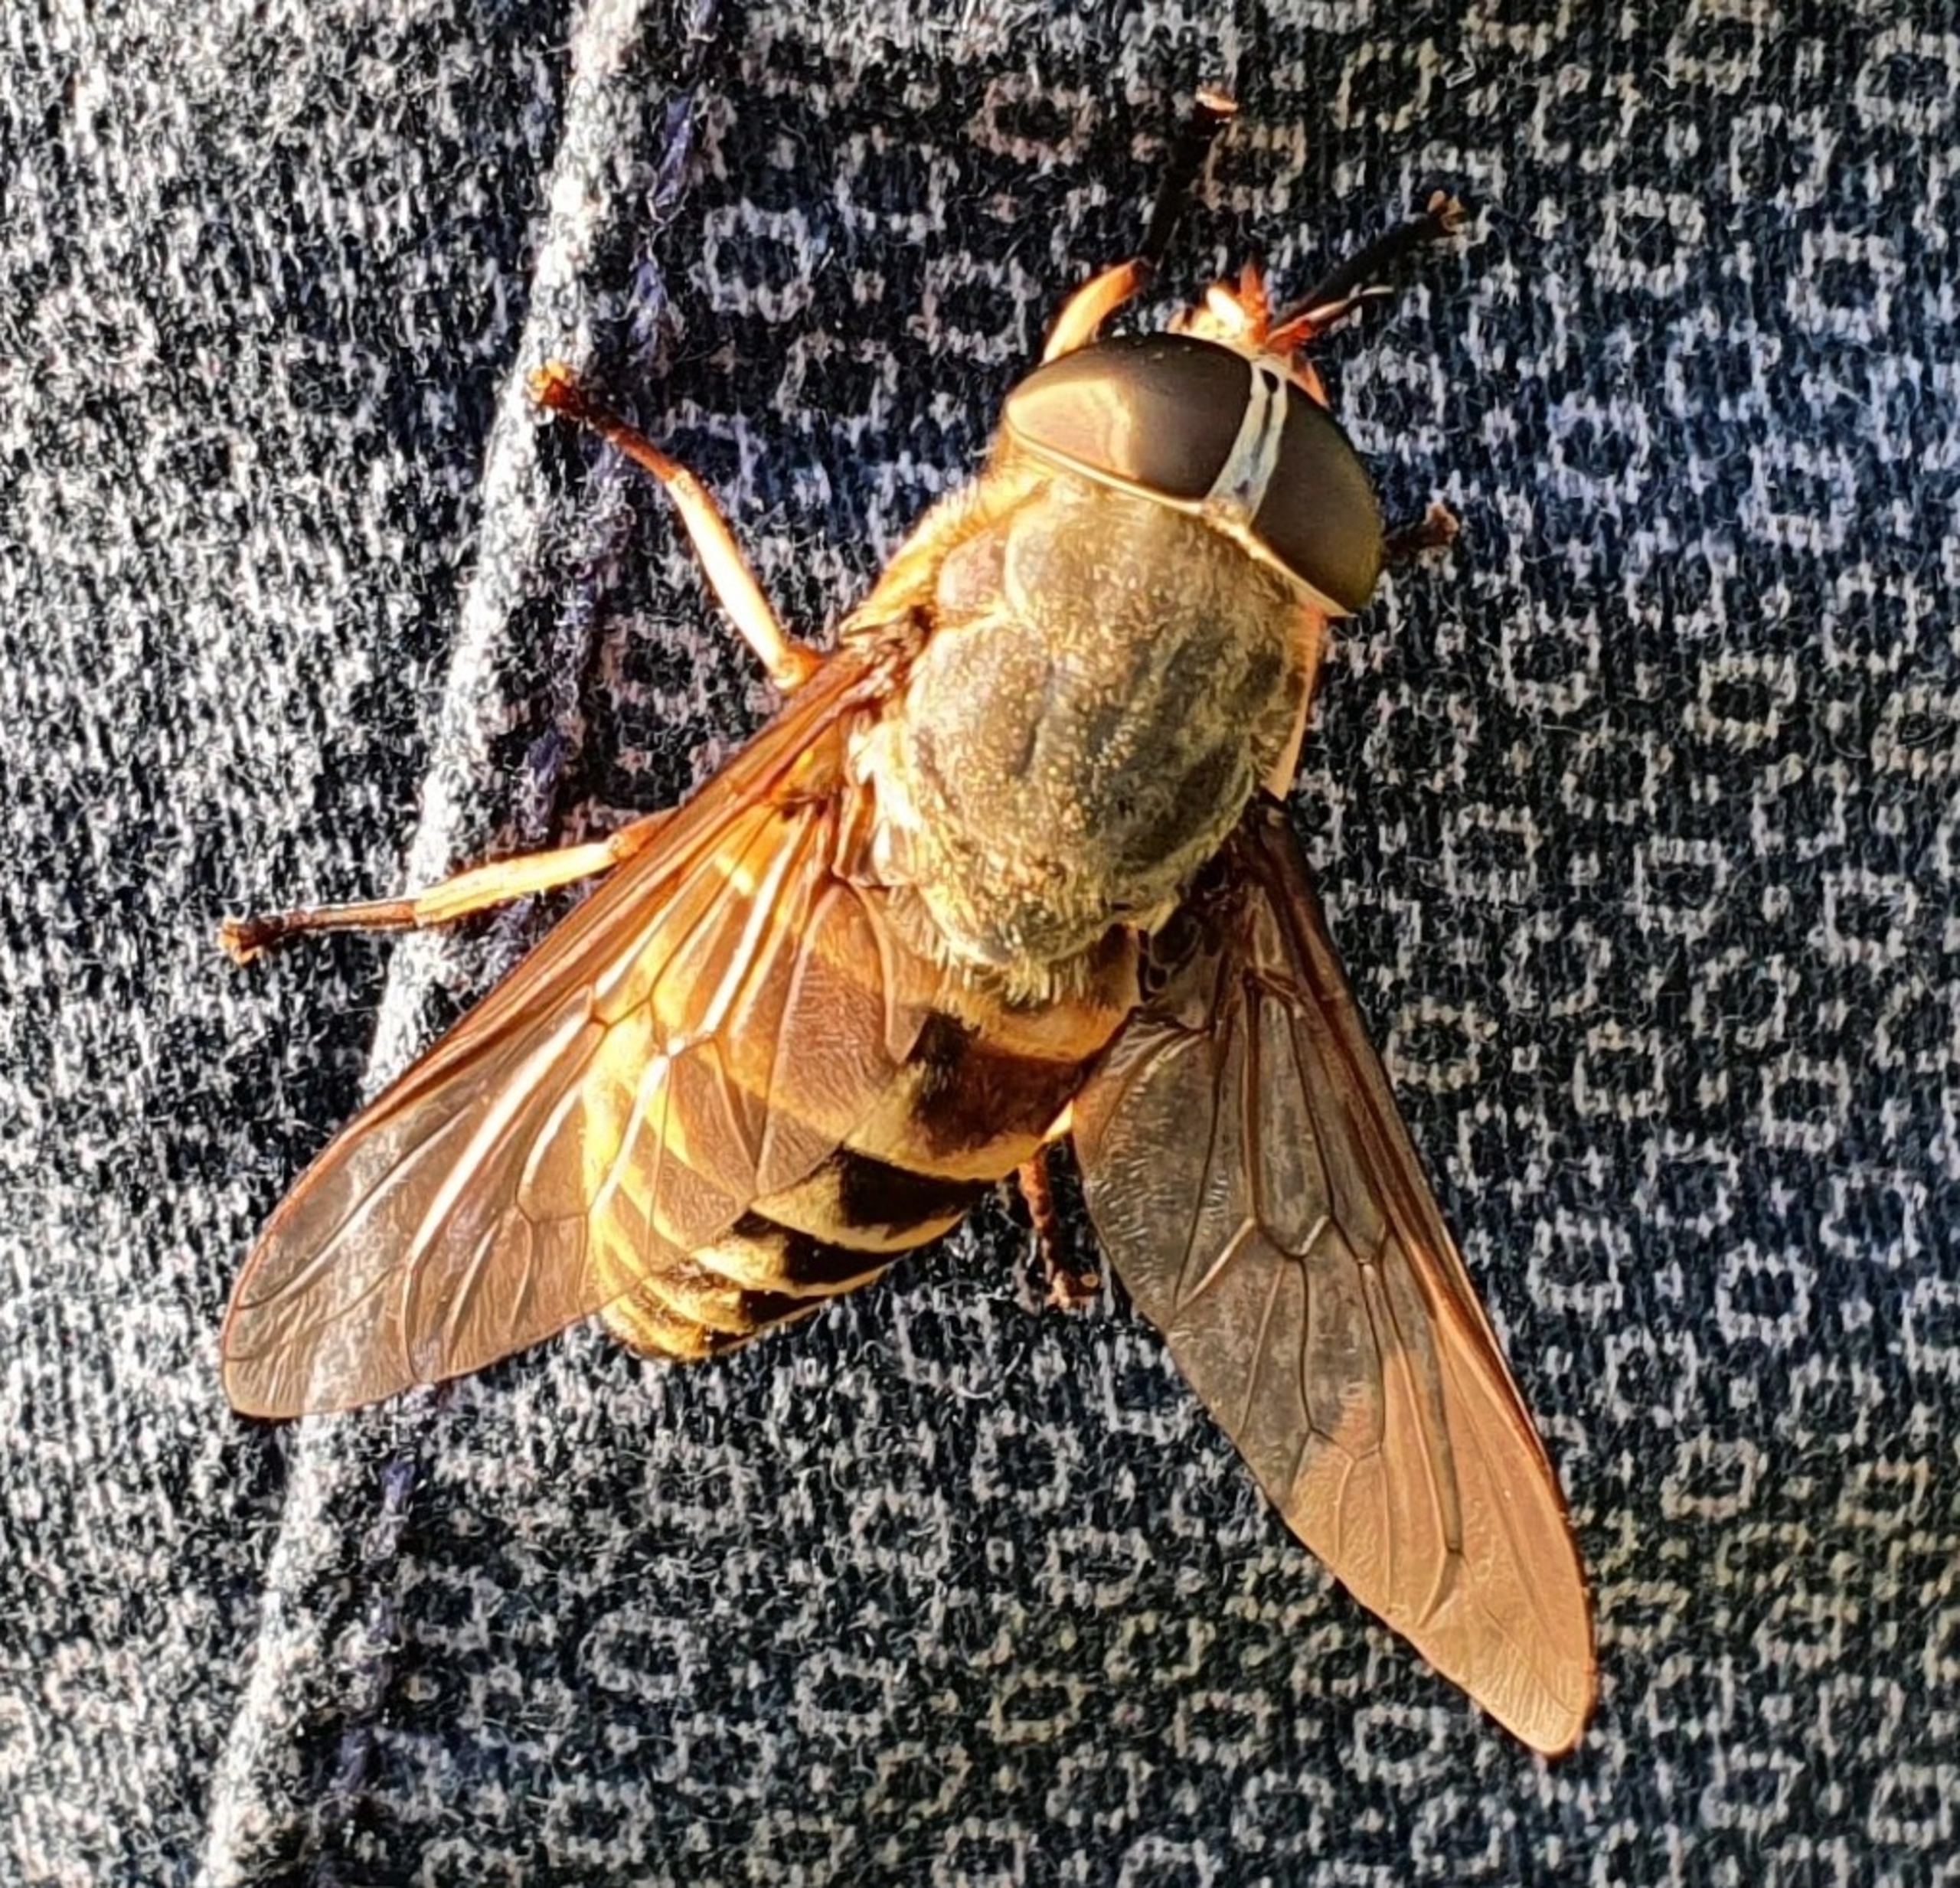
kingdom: Animalia
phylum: Arthropoda
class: Insecta
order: Diptera
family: Tabanidae
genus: Tabanus
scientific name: Tabanus sudeticus
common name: Hesteklæg
